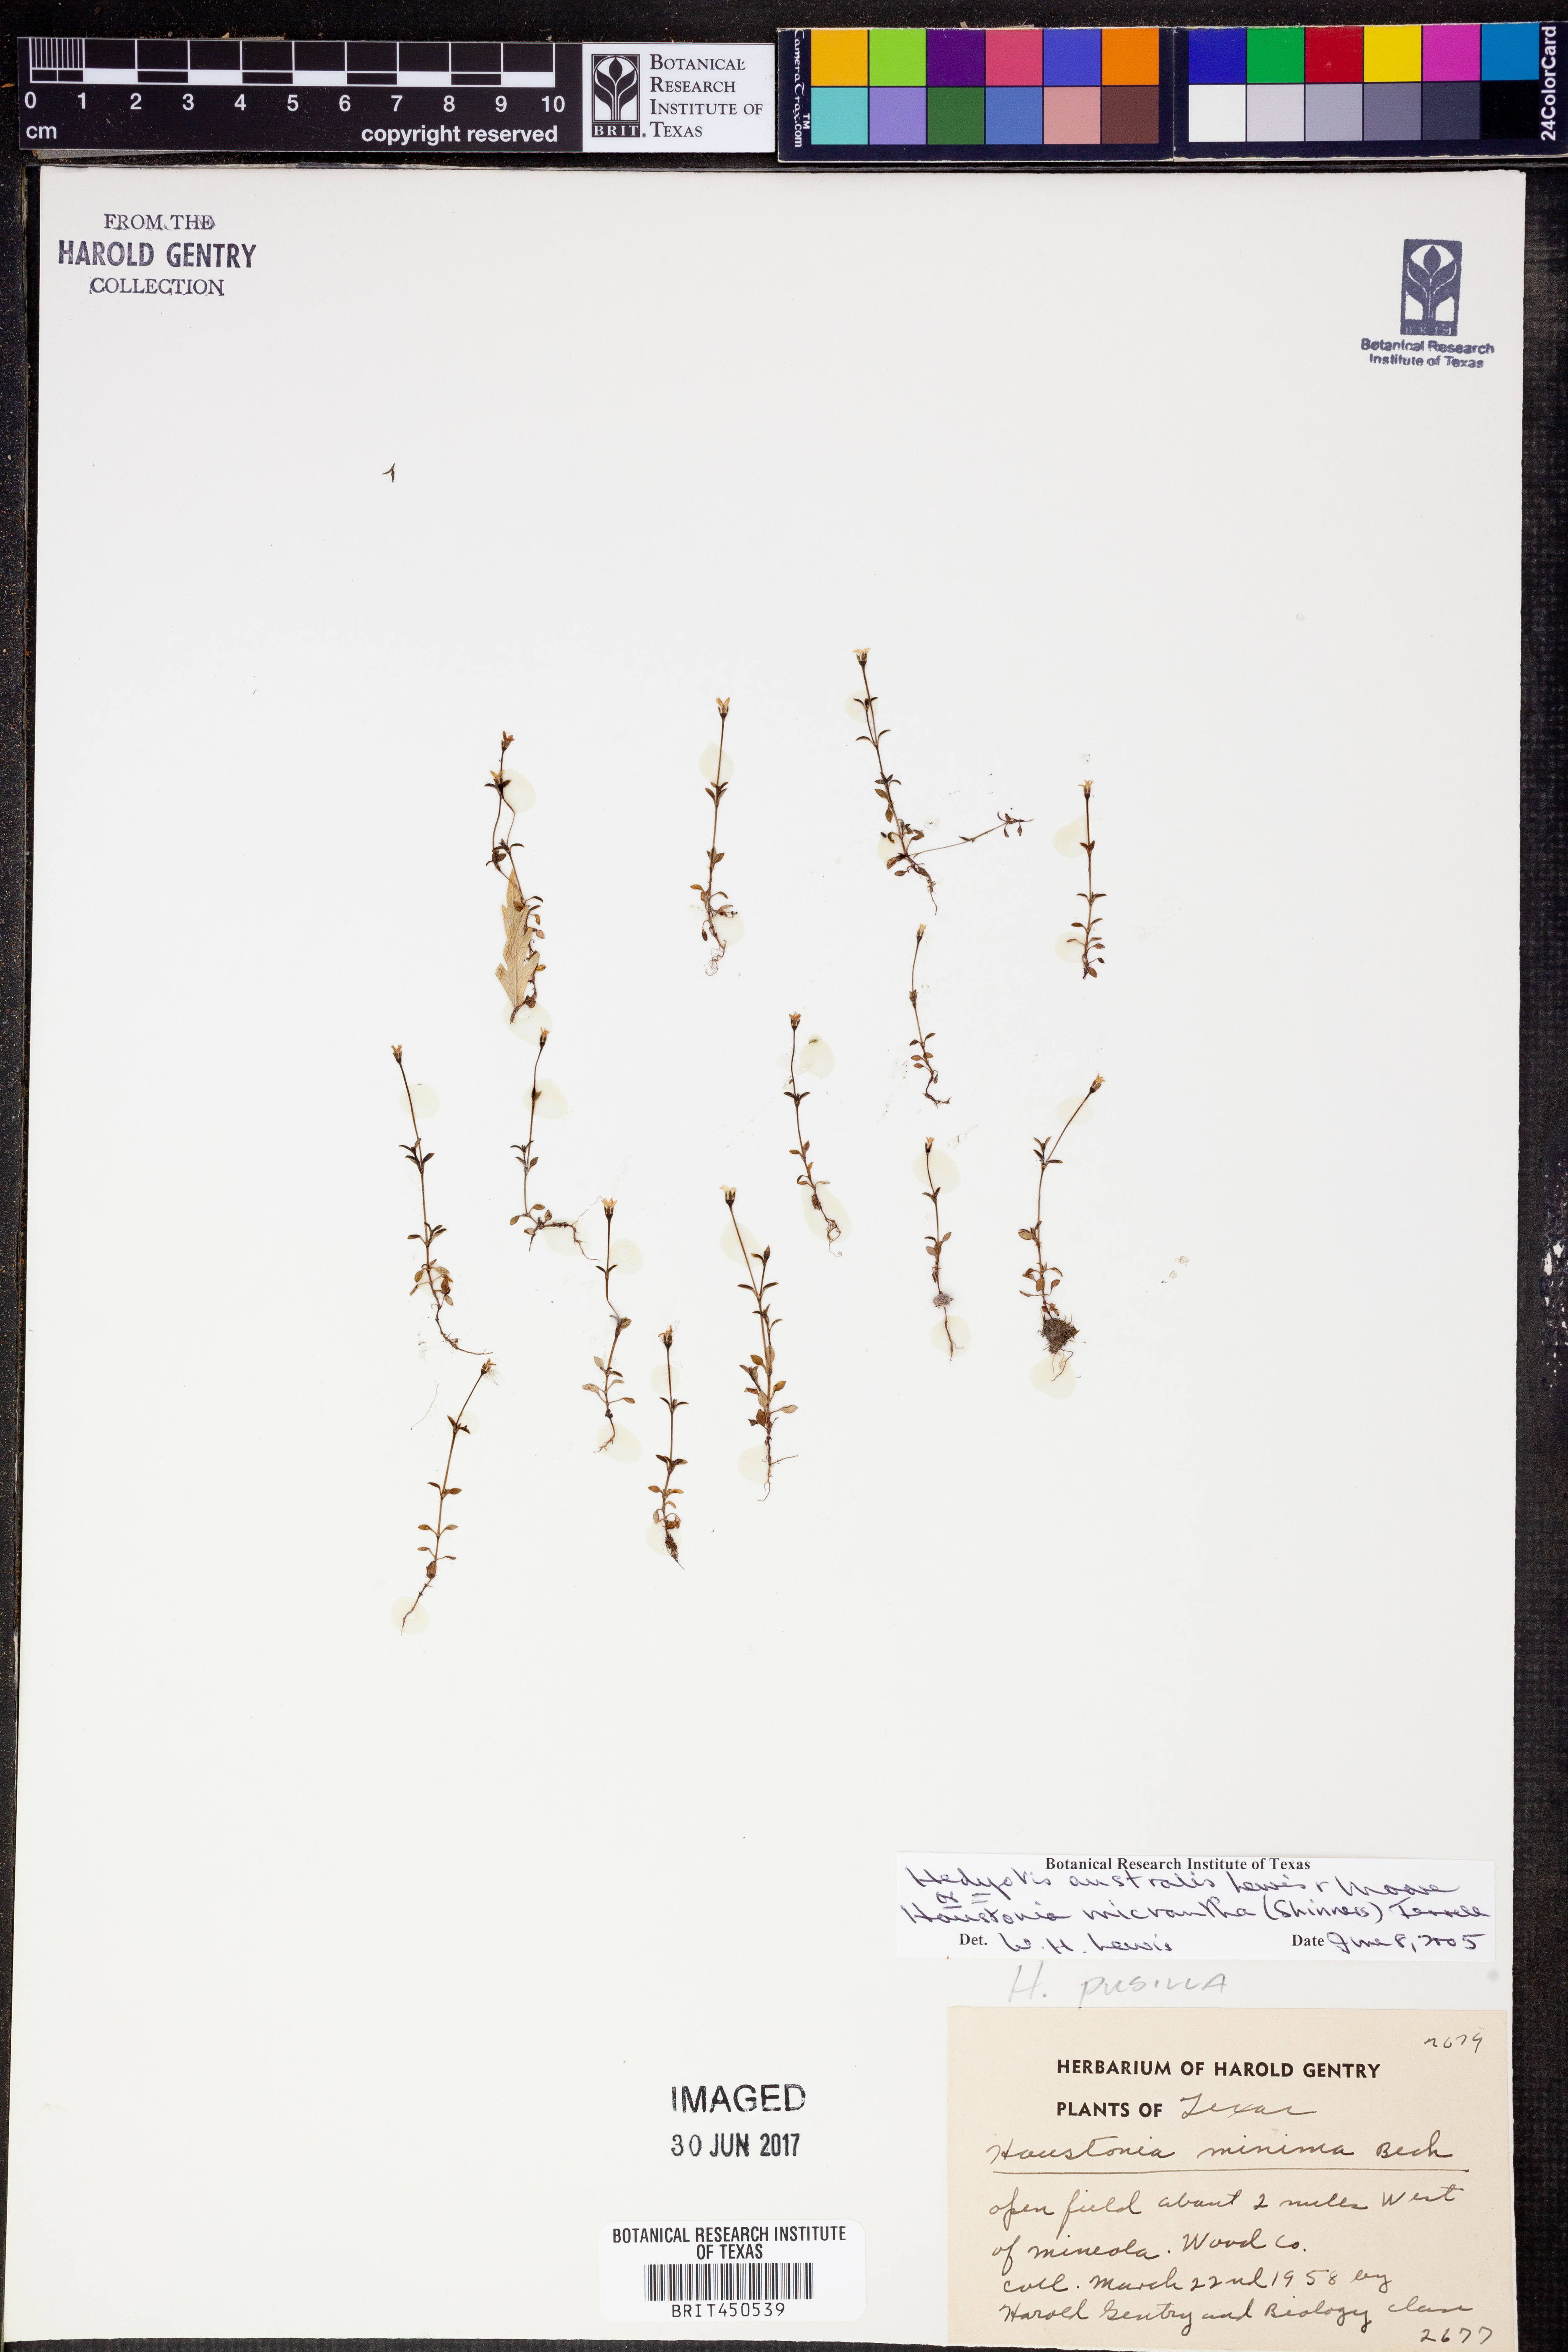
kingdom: Plantae
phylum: Tracheophyta
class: Magnoliopsida
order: Gentianales
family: Rubiaceae
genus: Houstonia
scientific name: Houstonia micrantha
